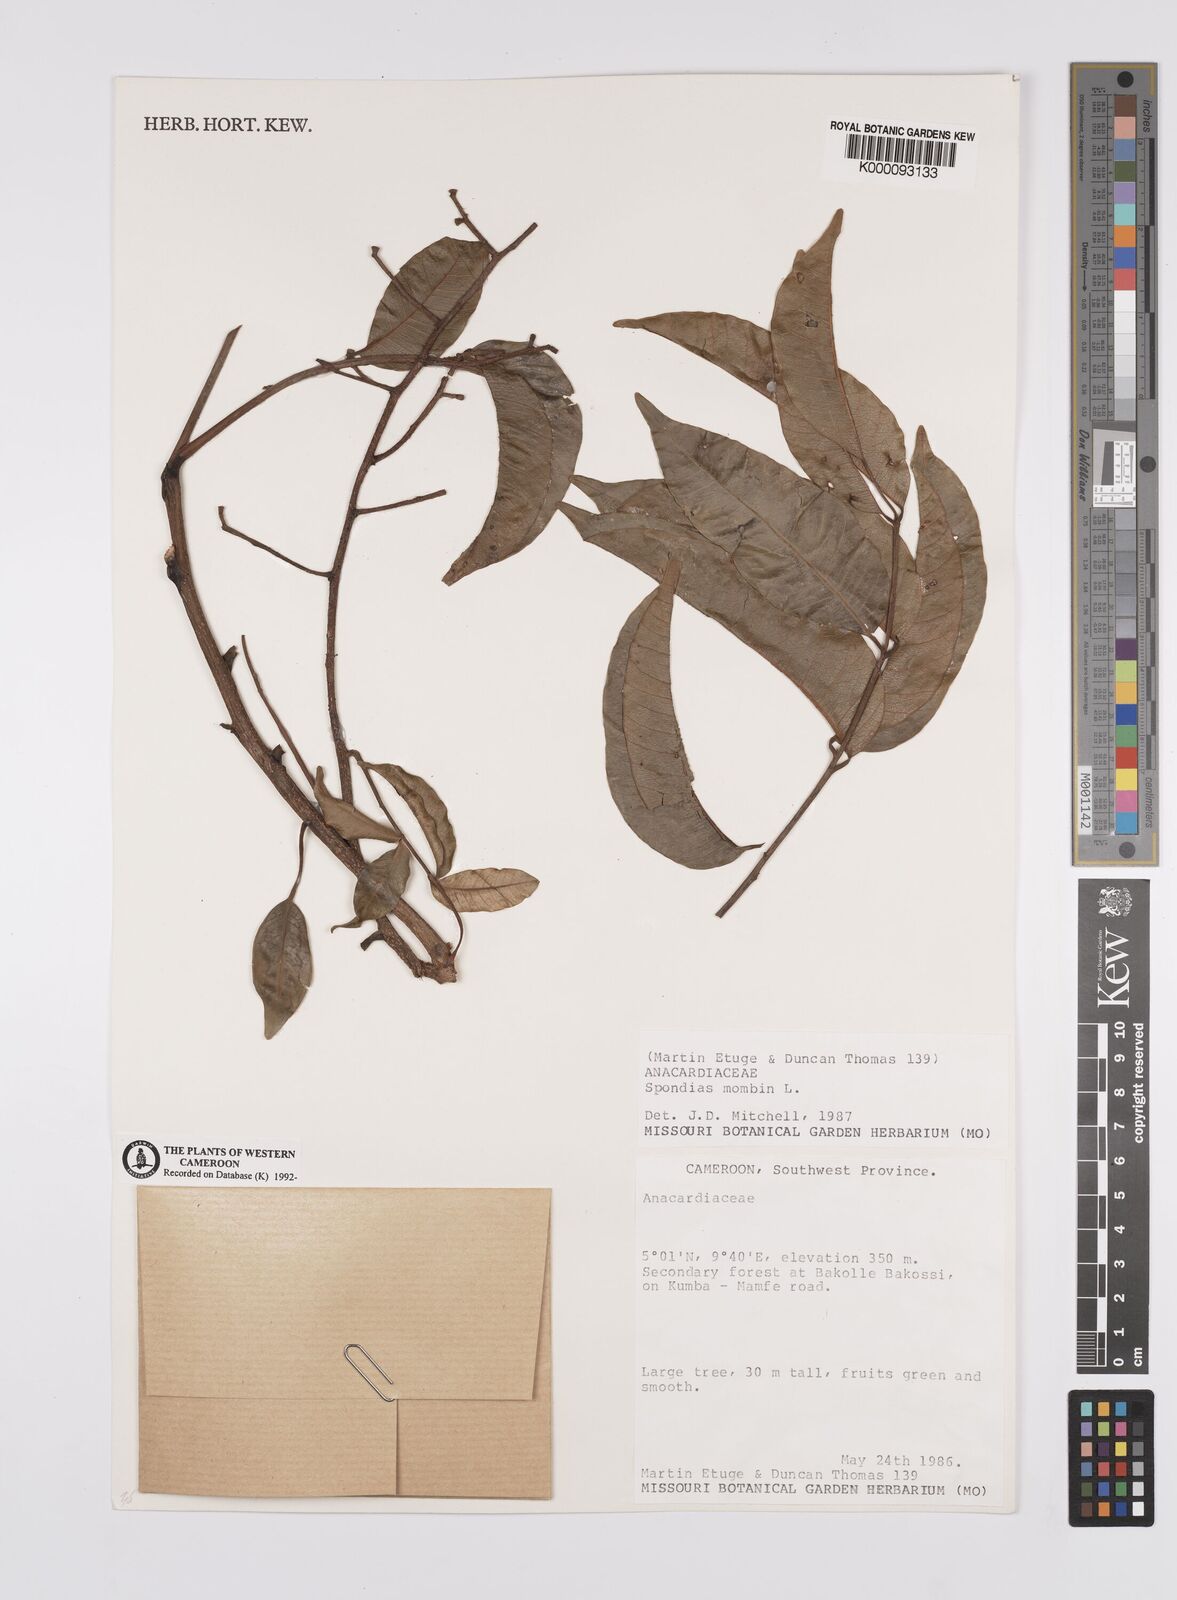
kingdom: Plantae
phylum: Tracheophyta
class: Magnoliopsida
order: Sapindales
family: Anacardiaceae
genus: Spondias
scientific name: Spondias mombin
